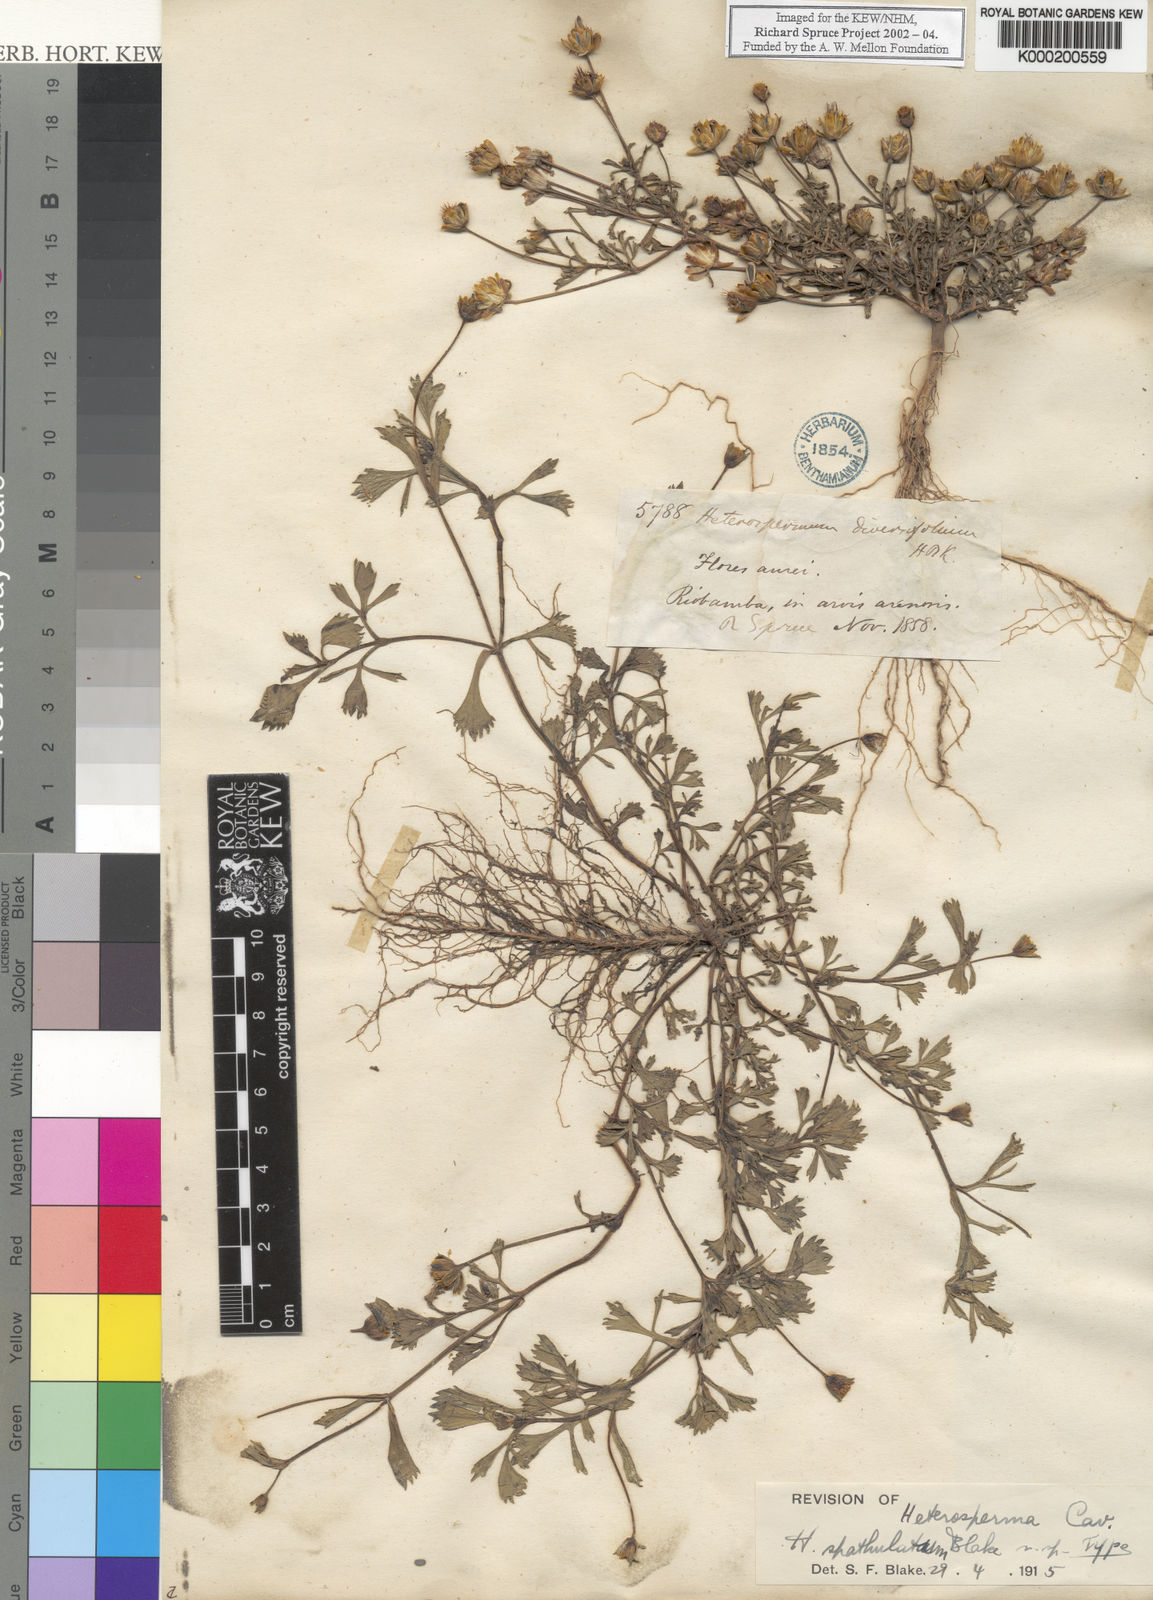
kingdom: Plantae
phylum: Tracheophyta
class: Magnoliopsida
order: Asterales
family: Asteraceae
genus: Heterosperma
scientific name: Heterosperma diversifolium
